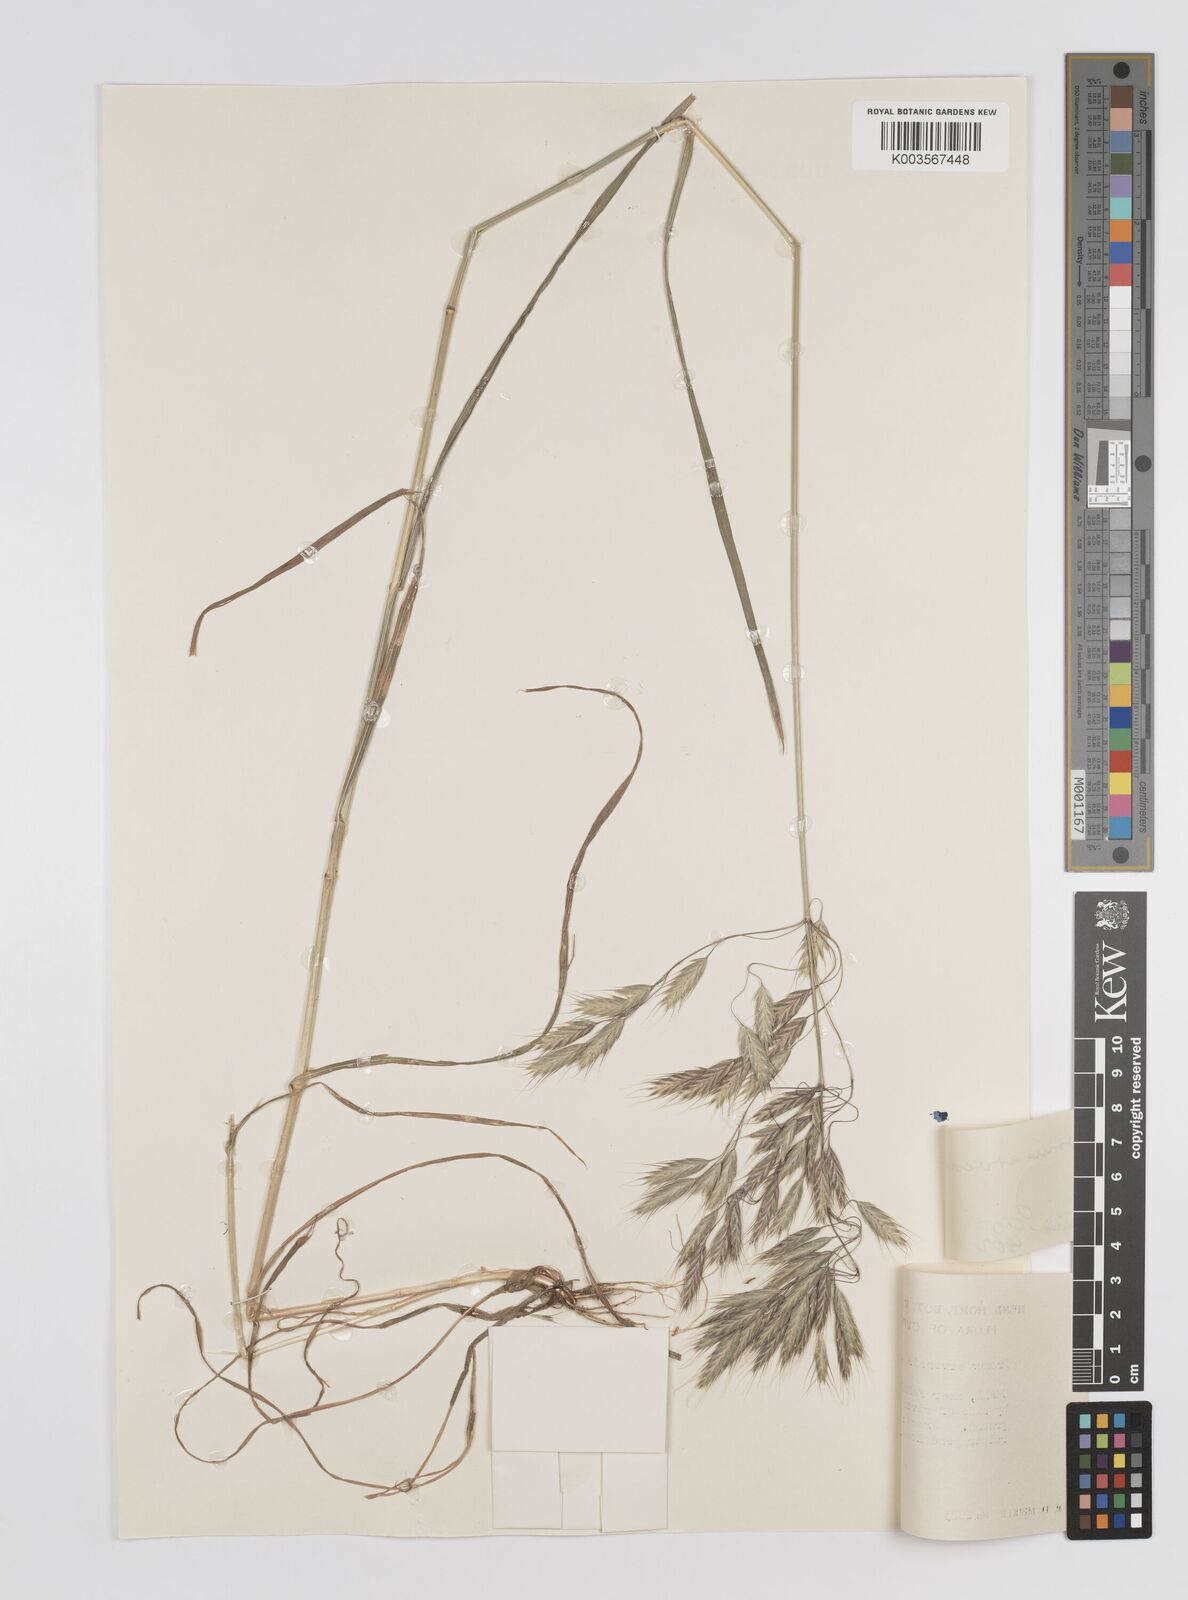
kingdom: Plantae
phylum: Tracheophyta
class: Liliopsida
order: Poales
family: Poaceae
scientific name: Poaceae
